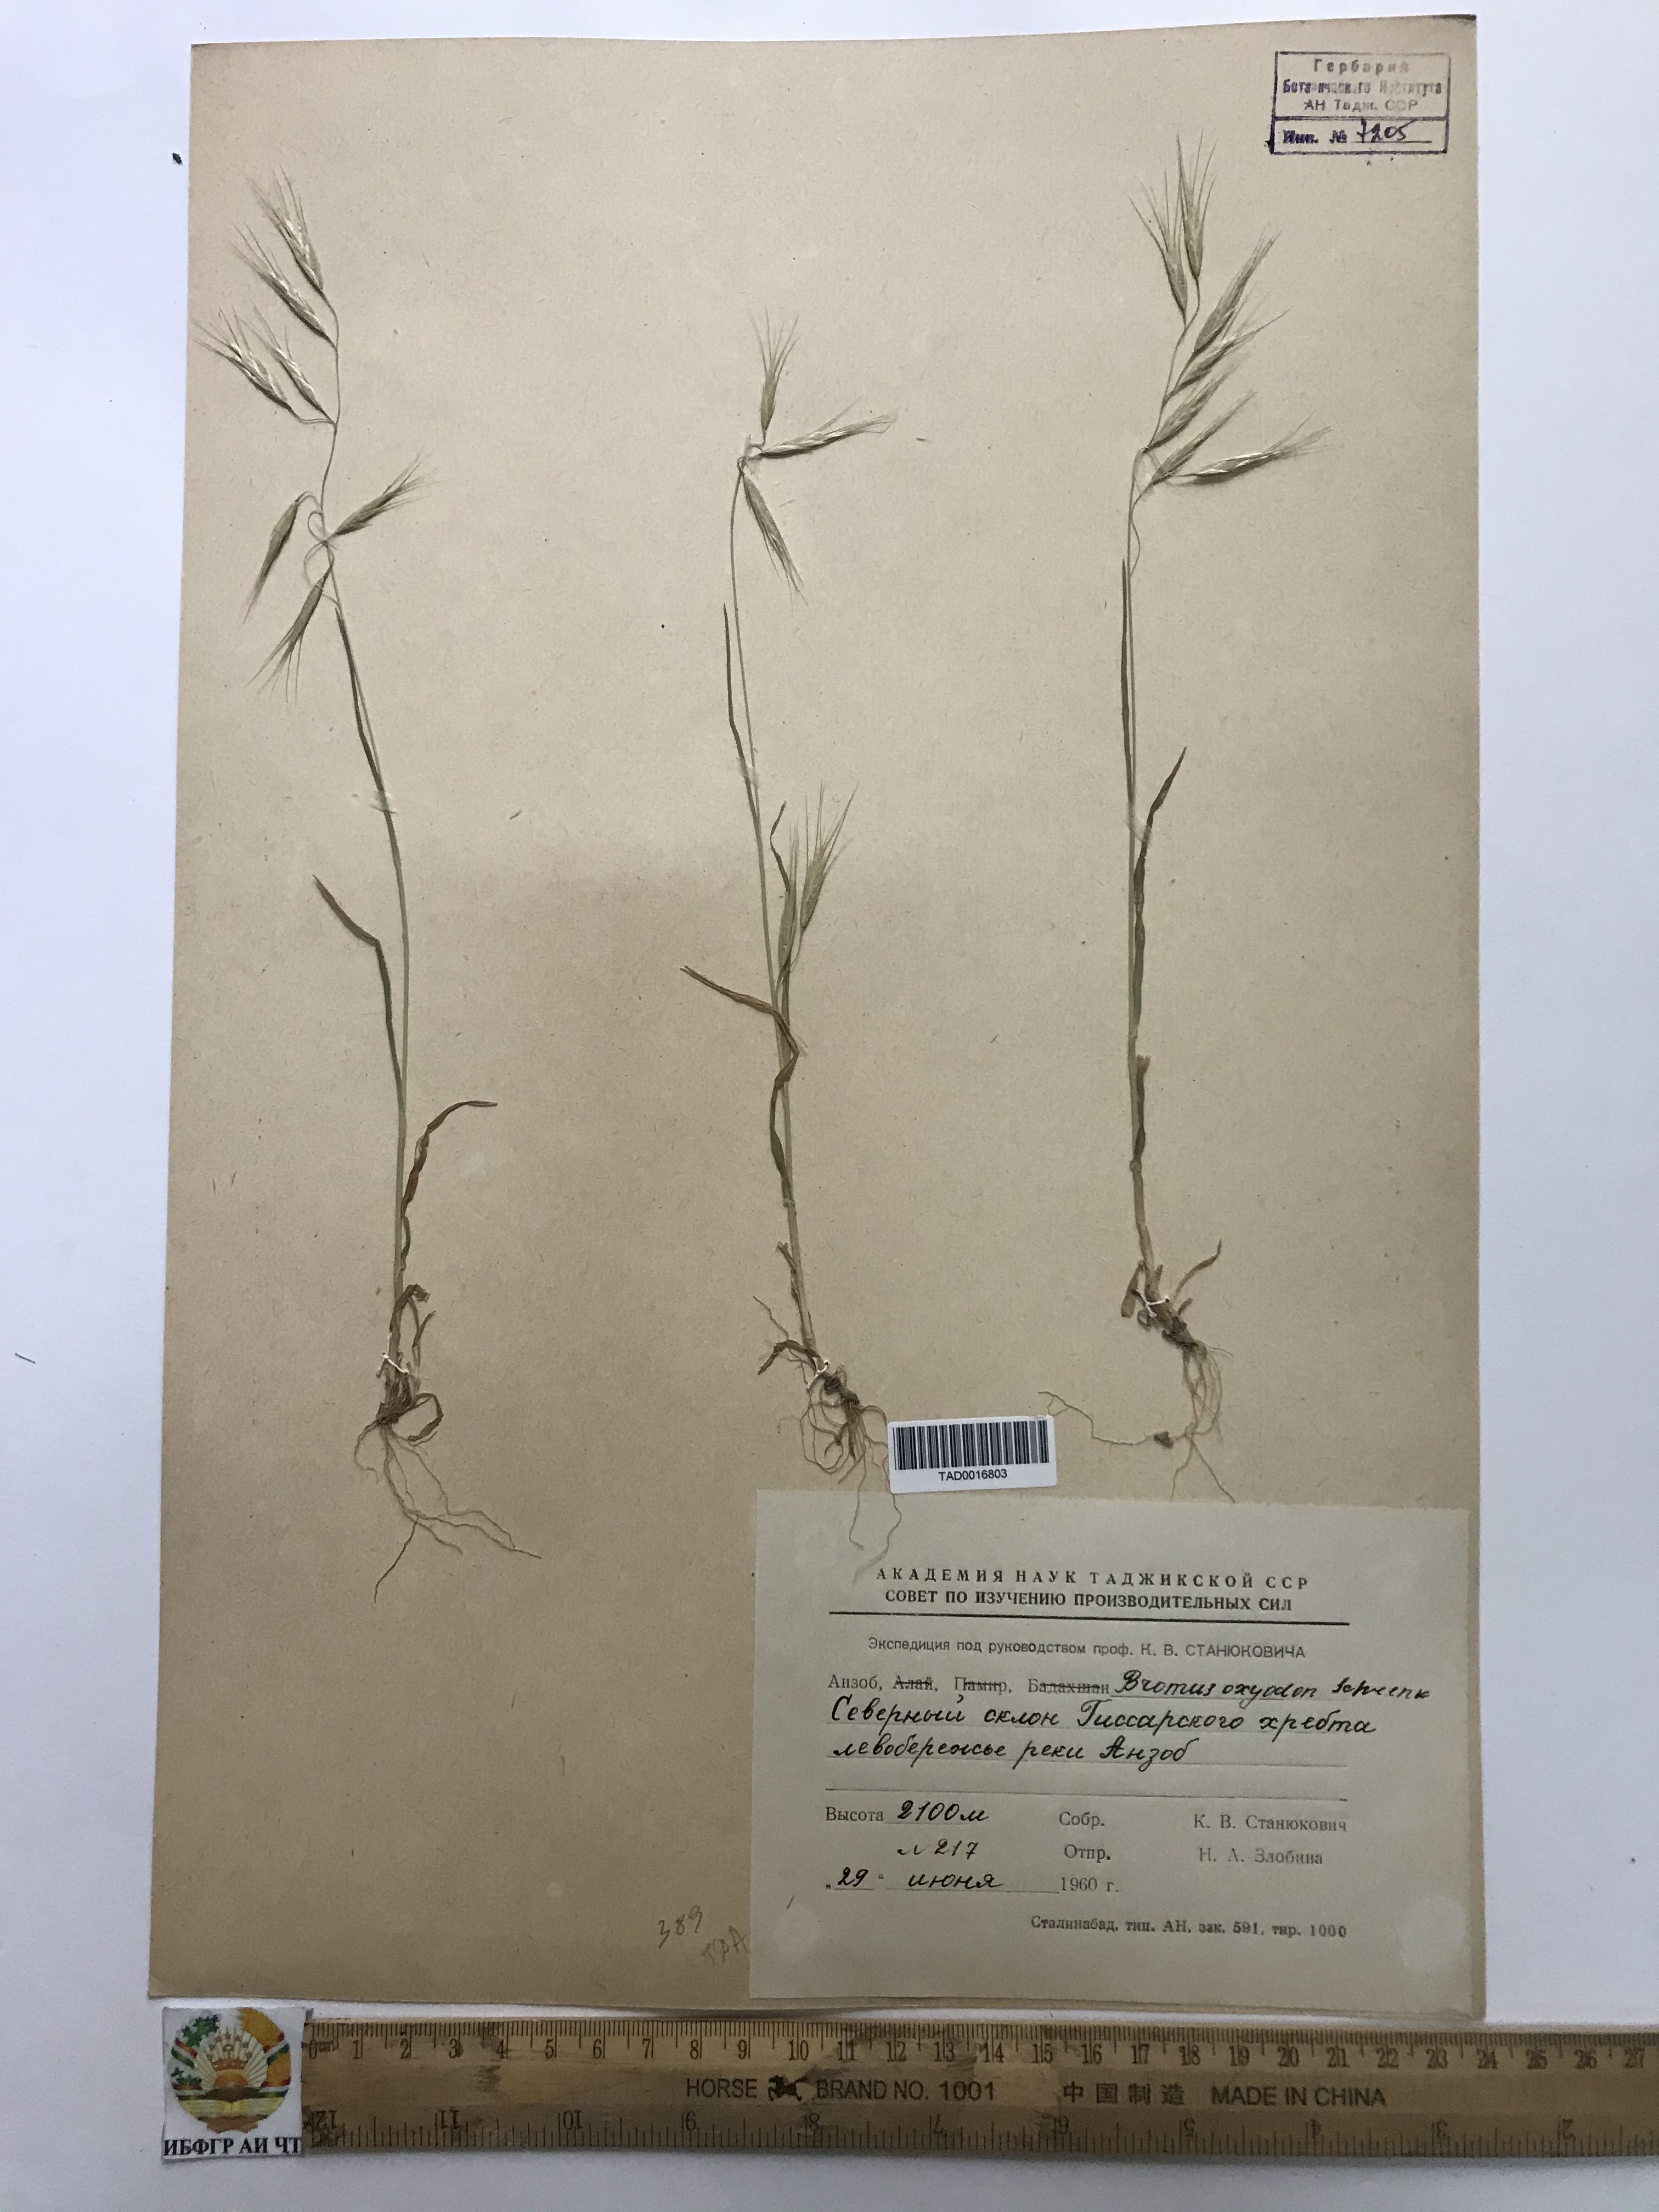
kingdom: Plantae
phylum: Tracheophyta
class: Liliopsida
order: Poales
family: Poaceae
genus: Bromus
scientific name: Bromus oxyodon
